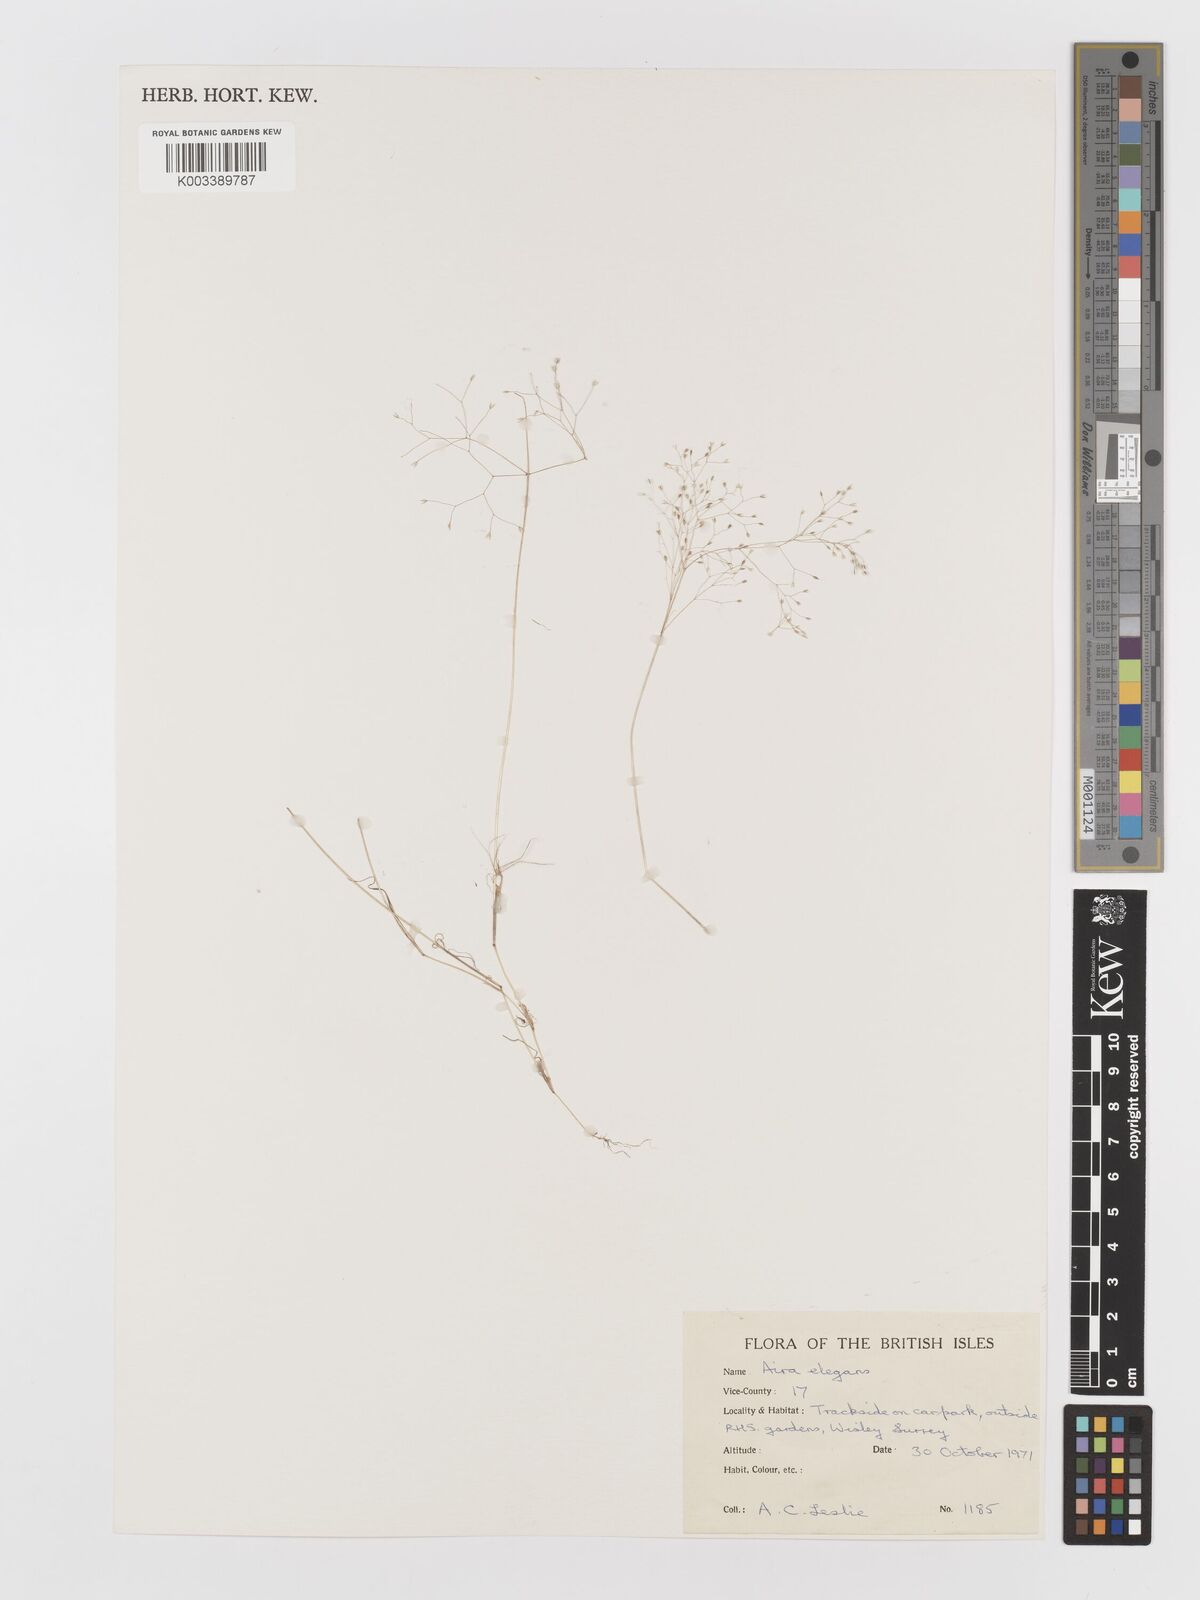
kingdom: Plantae
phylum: Tracheophyta
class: Liliopsida
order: Poales
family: Poaceae
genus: Aira
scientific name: Aira elegans
